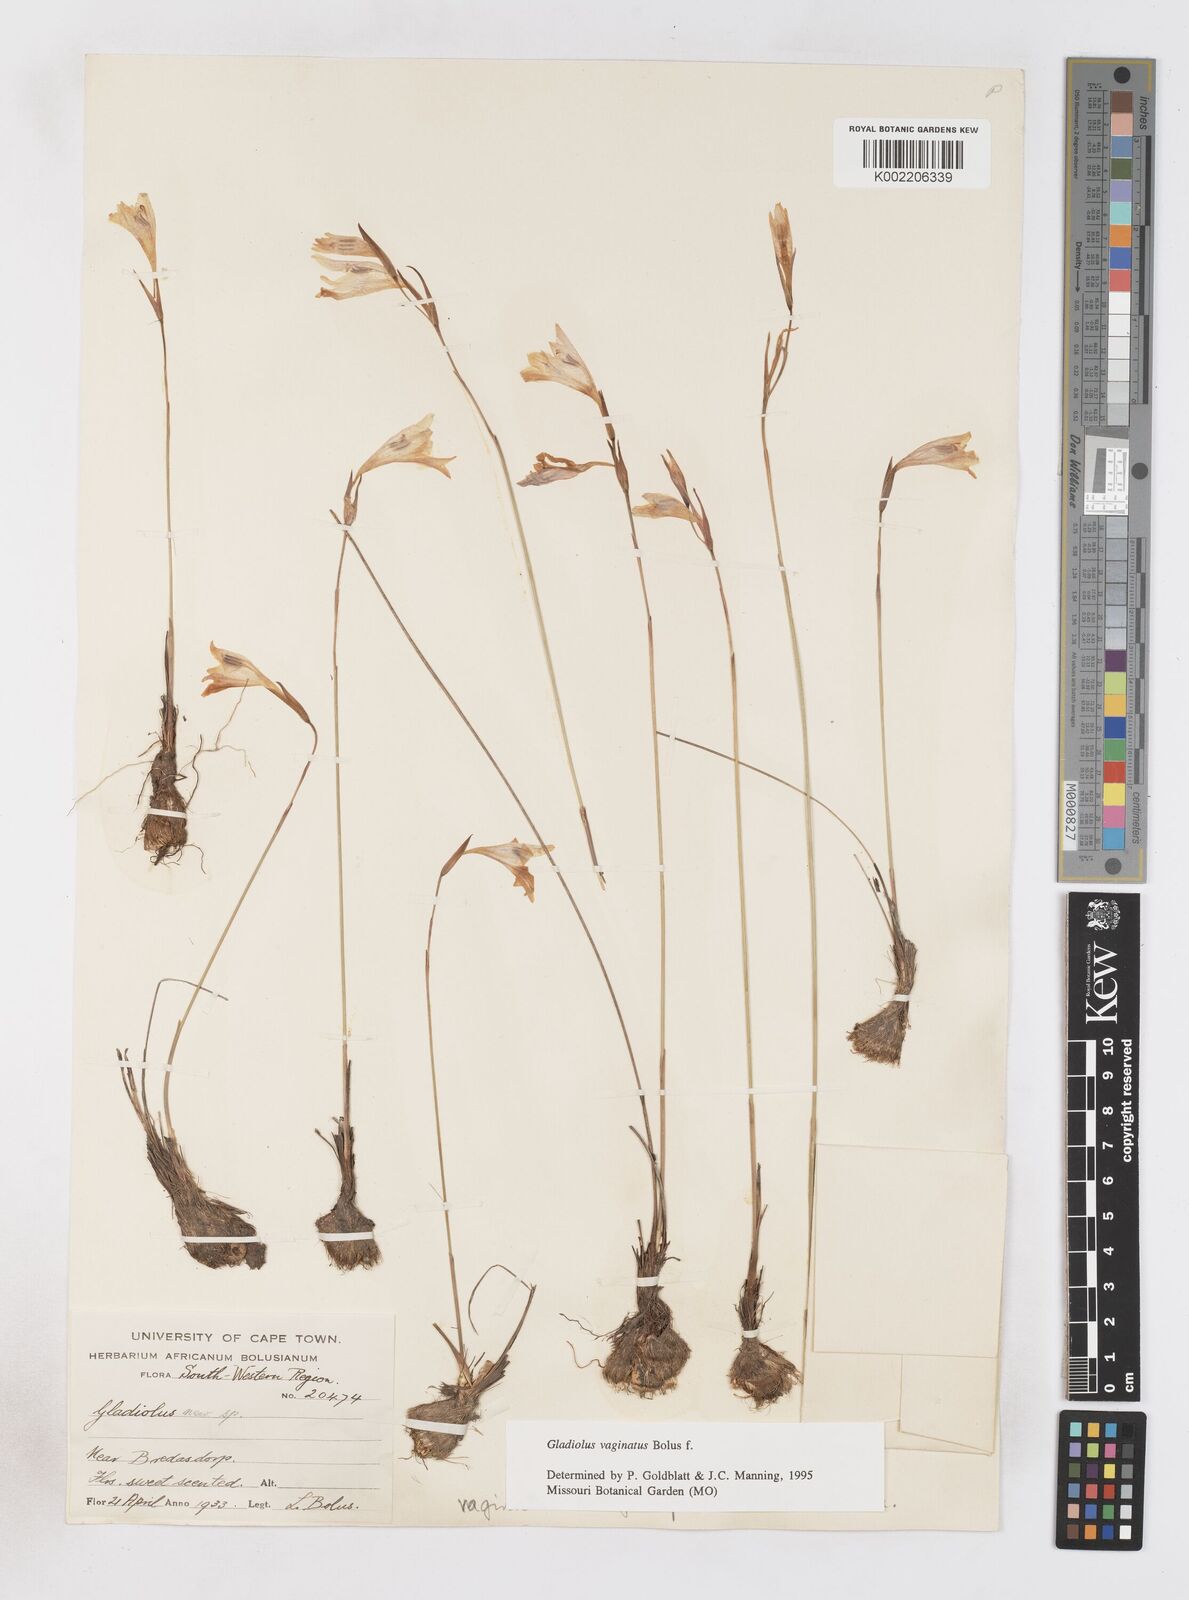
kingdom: Plantae
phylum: Tracheophyta
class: Liliopsida
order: Asparagales
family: Iridaceae
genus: Gladiolus
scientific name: Gladiolus brevifolius
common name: March pypie
